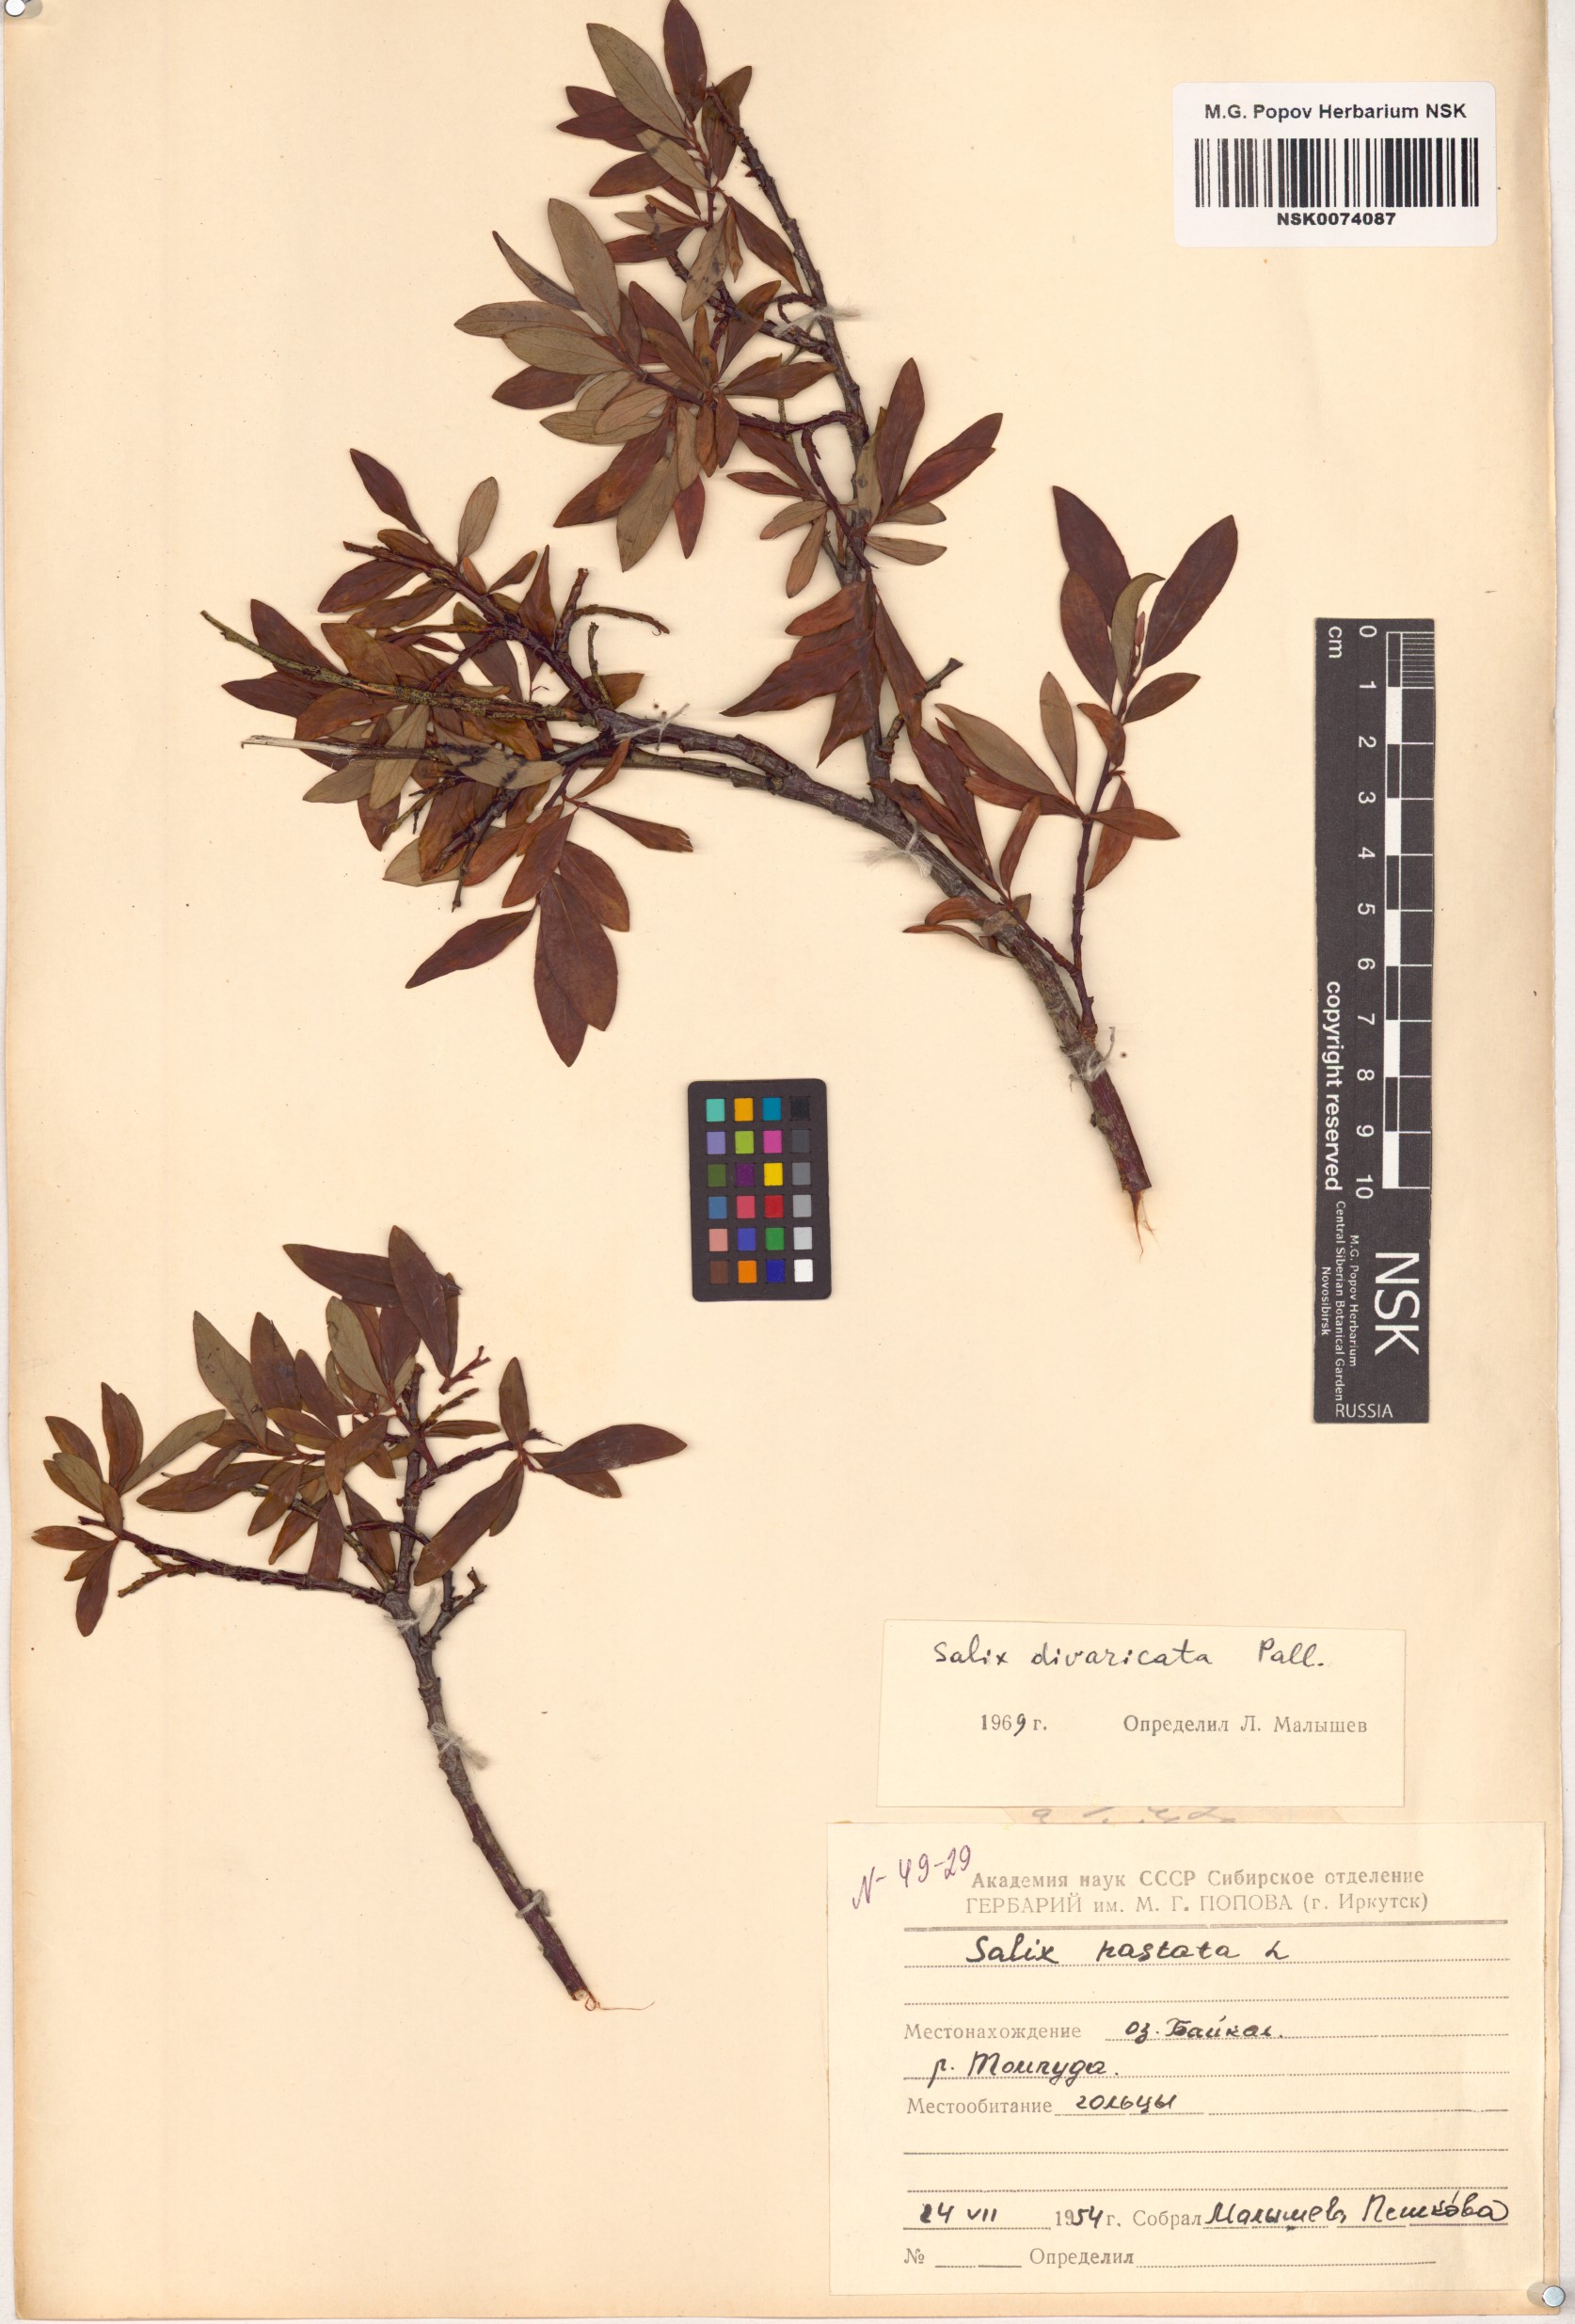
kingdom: Plantae
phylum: Tracheophyta
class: Magnoliopsida
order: Malpighiales
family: Salicaceae
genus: Salix
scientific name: Salix divaricata
